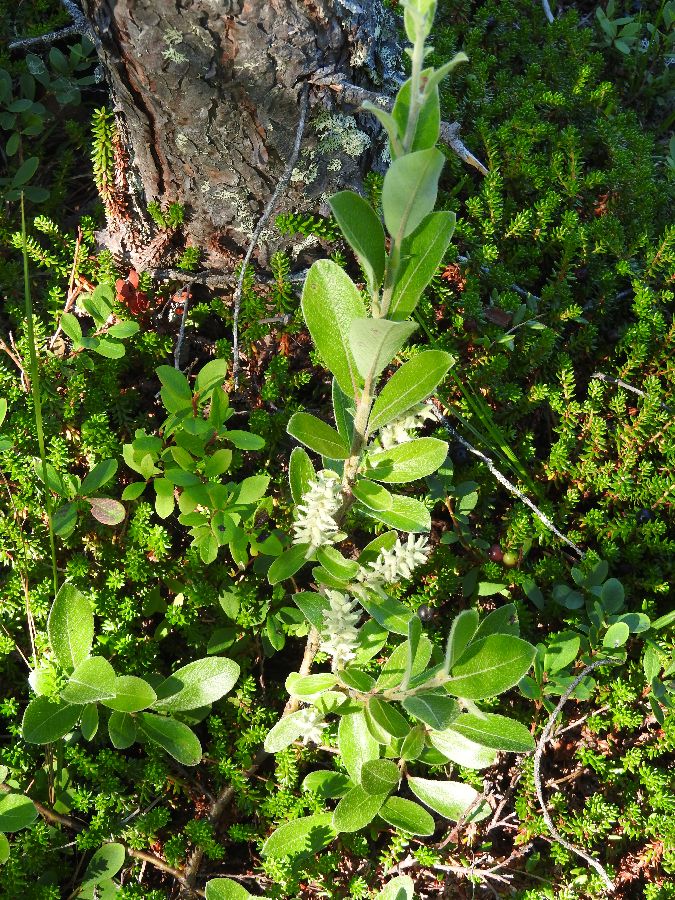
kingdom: Plantae
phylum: Tracheophyta
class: Magnoliopsida
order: Malpighiales
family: Salicaceae
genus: Salix
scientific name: Salix glauca
